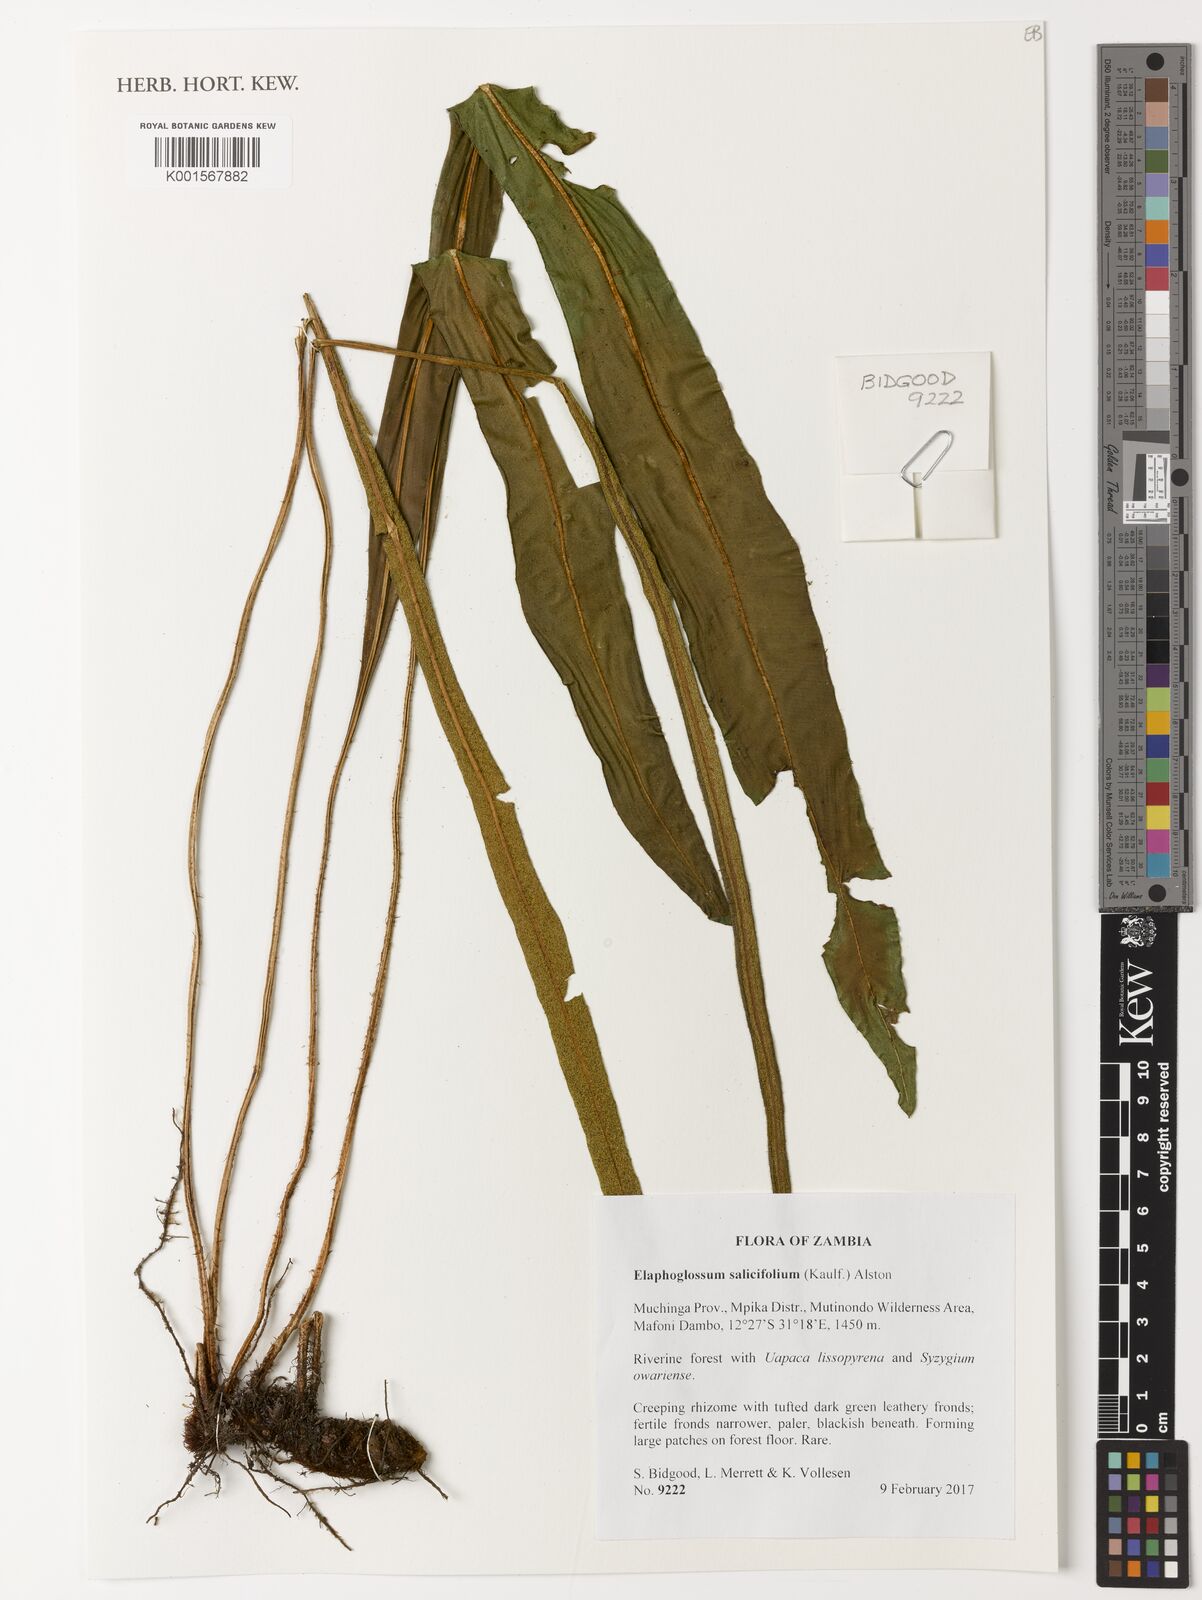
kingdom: Plantae
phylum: Tracheophyta
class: Polypodiopsida
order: Polypodiales
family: Dryopteridaceae
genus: Elaphoglossum
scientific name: Elaphoglossum lancifolium
